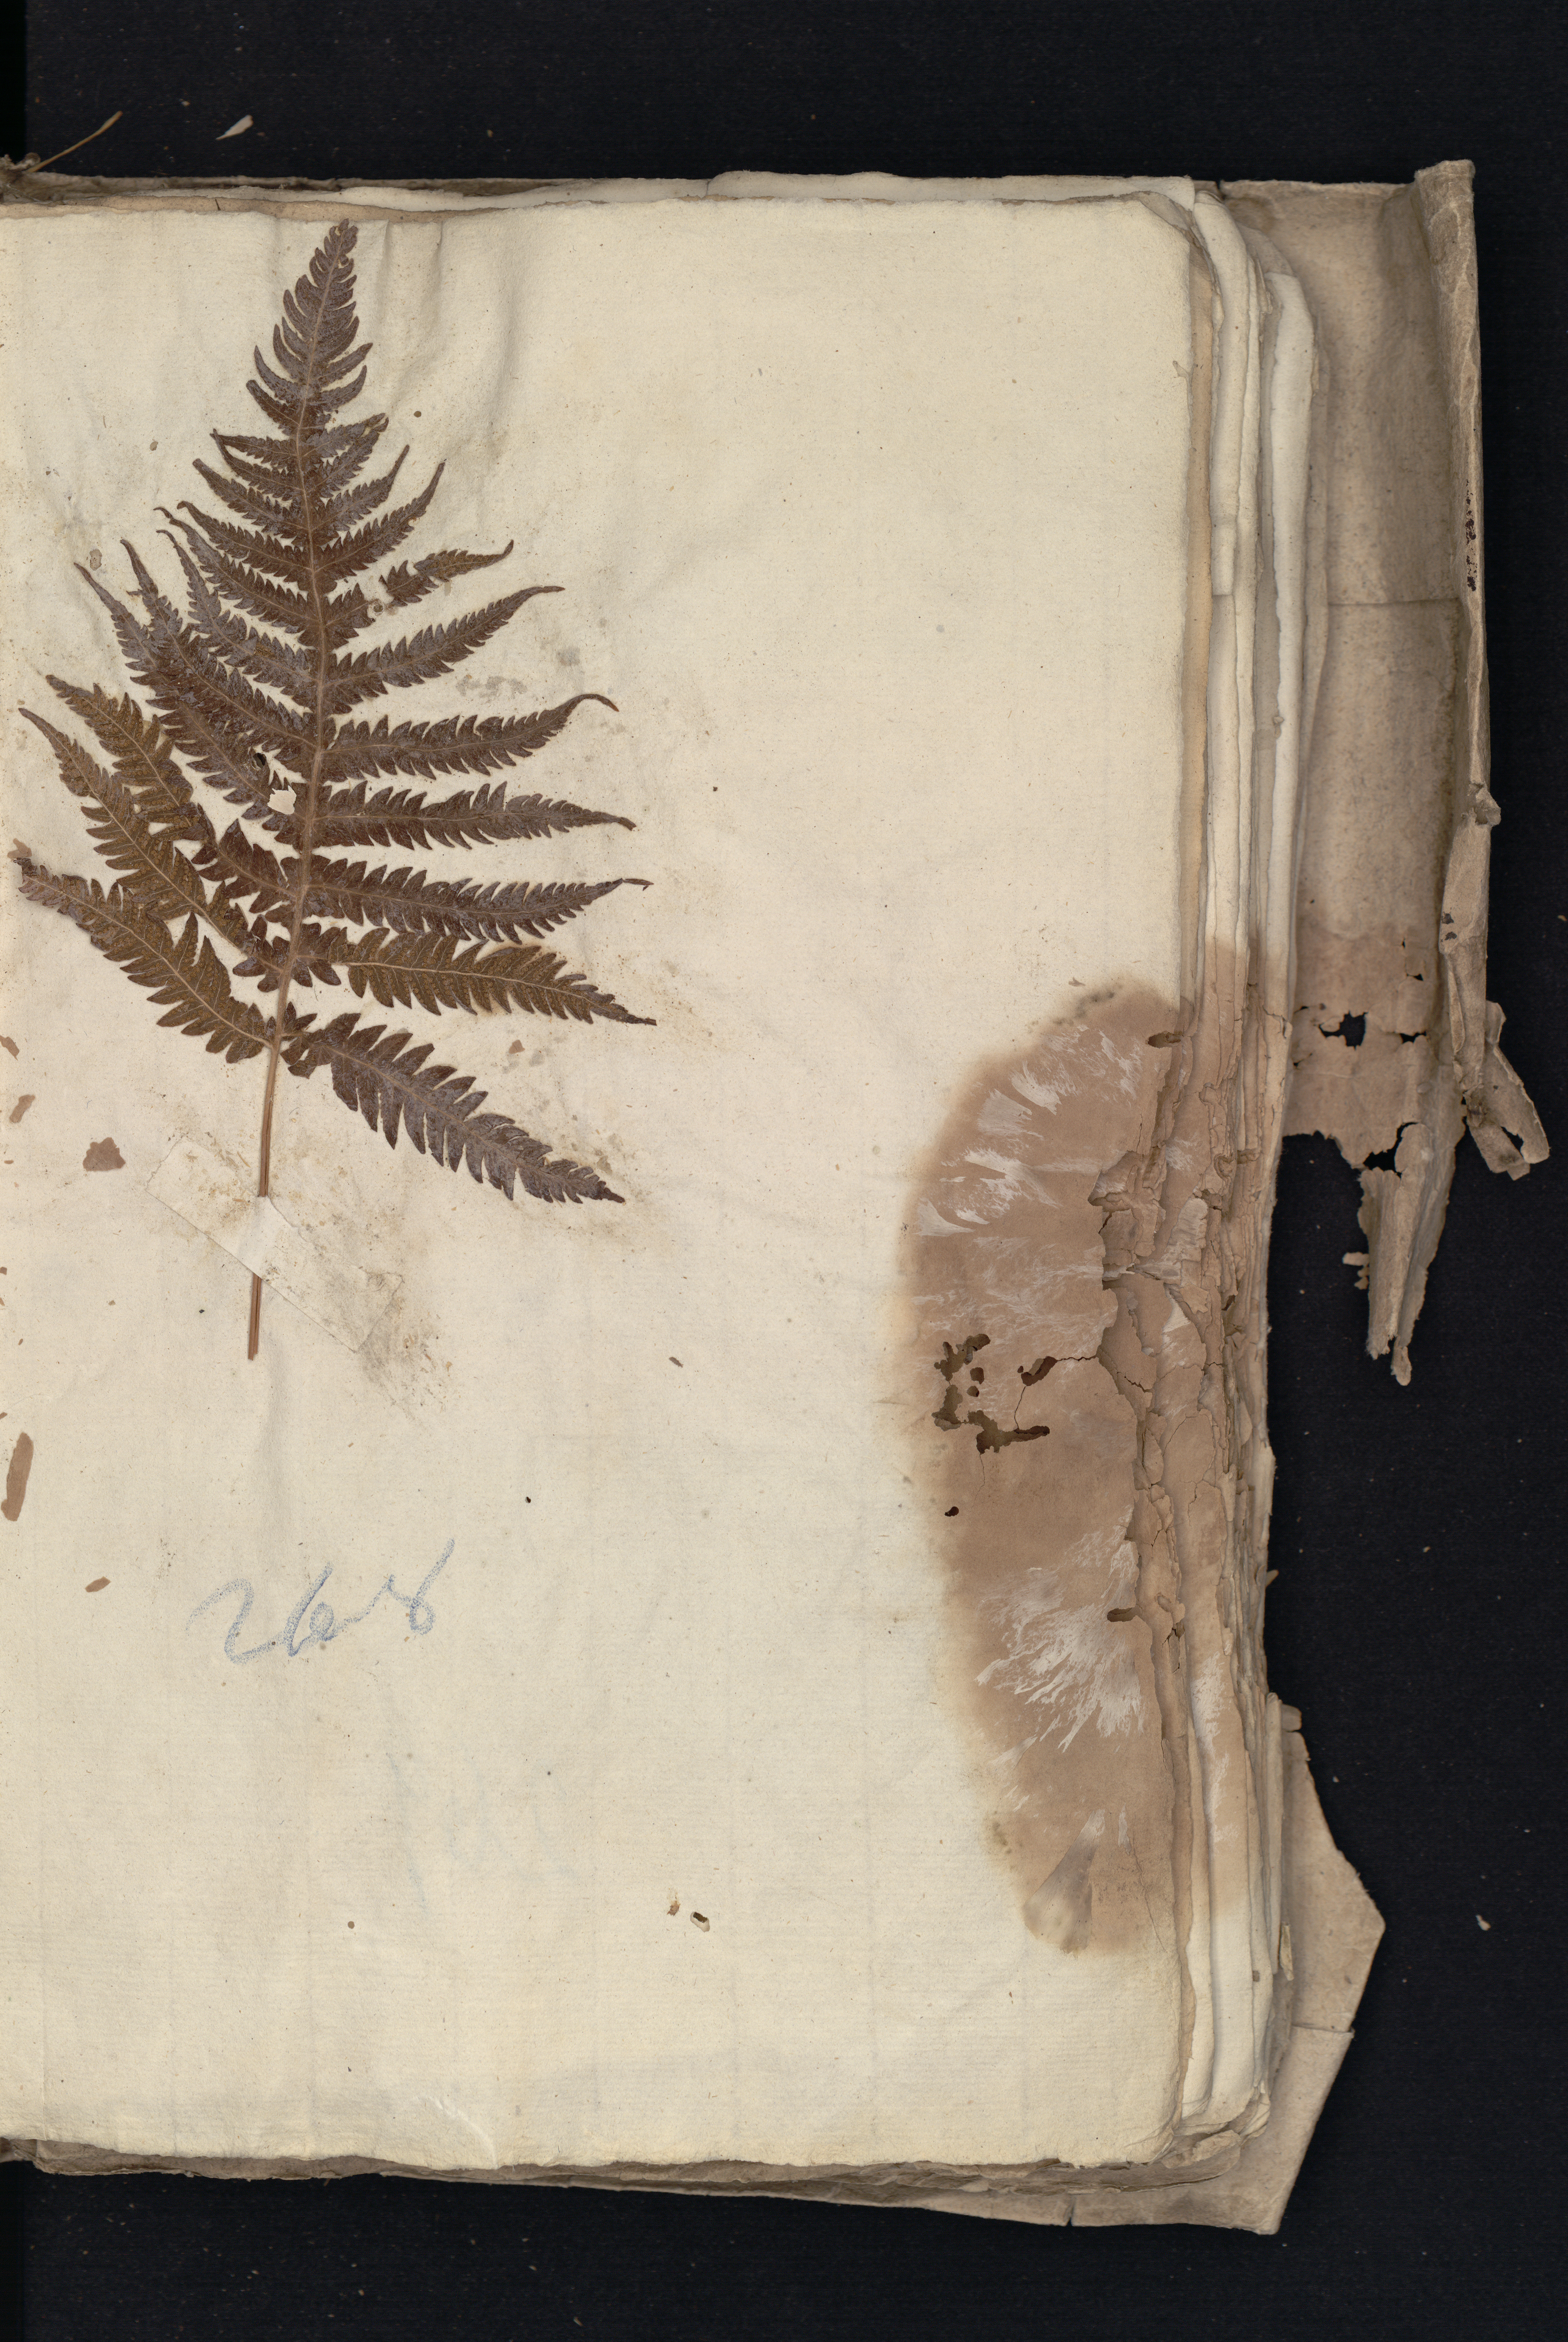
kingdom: Plantae
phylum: Tracheophyta
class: Polypodiopsida
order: Polypodiales
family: Thelypteridaceae
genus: Phegopteris
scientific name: Phegopteris connectilis
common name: Beech fern
